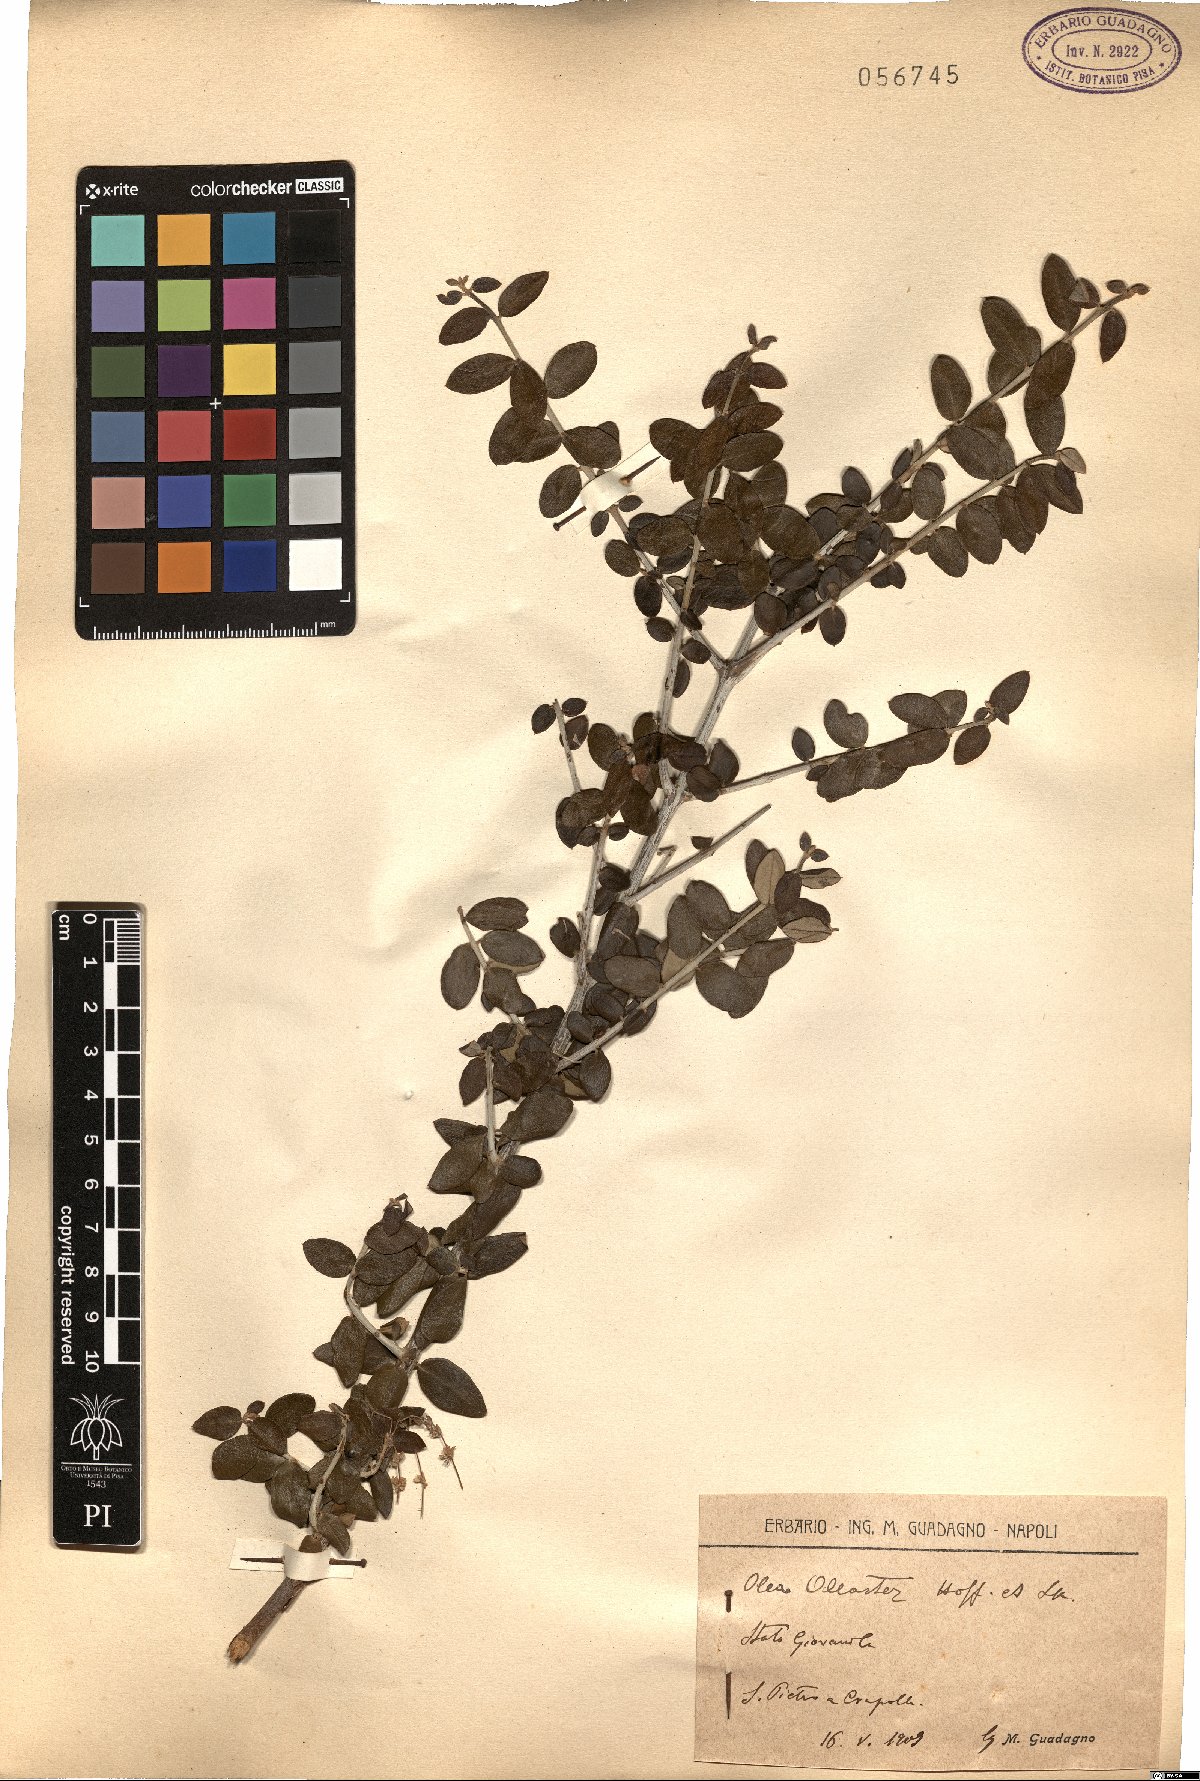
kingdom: Plantae
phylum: Tracheophyta
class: Magnoliopsida
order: Lamiales
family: Oleaceae
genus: Olea
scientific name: Olea europaea
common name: Olive
